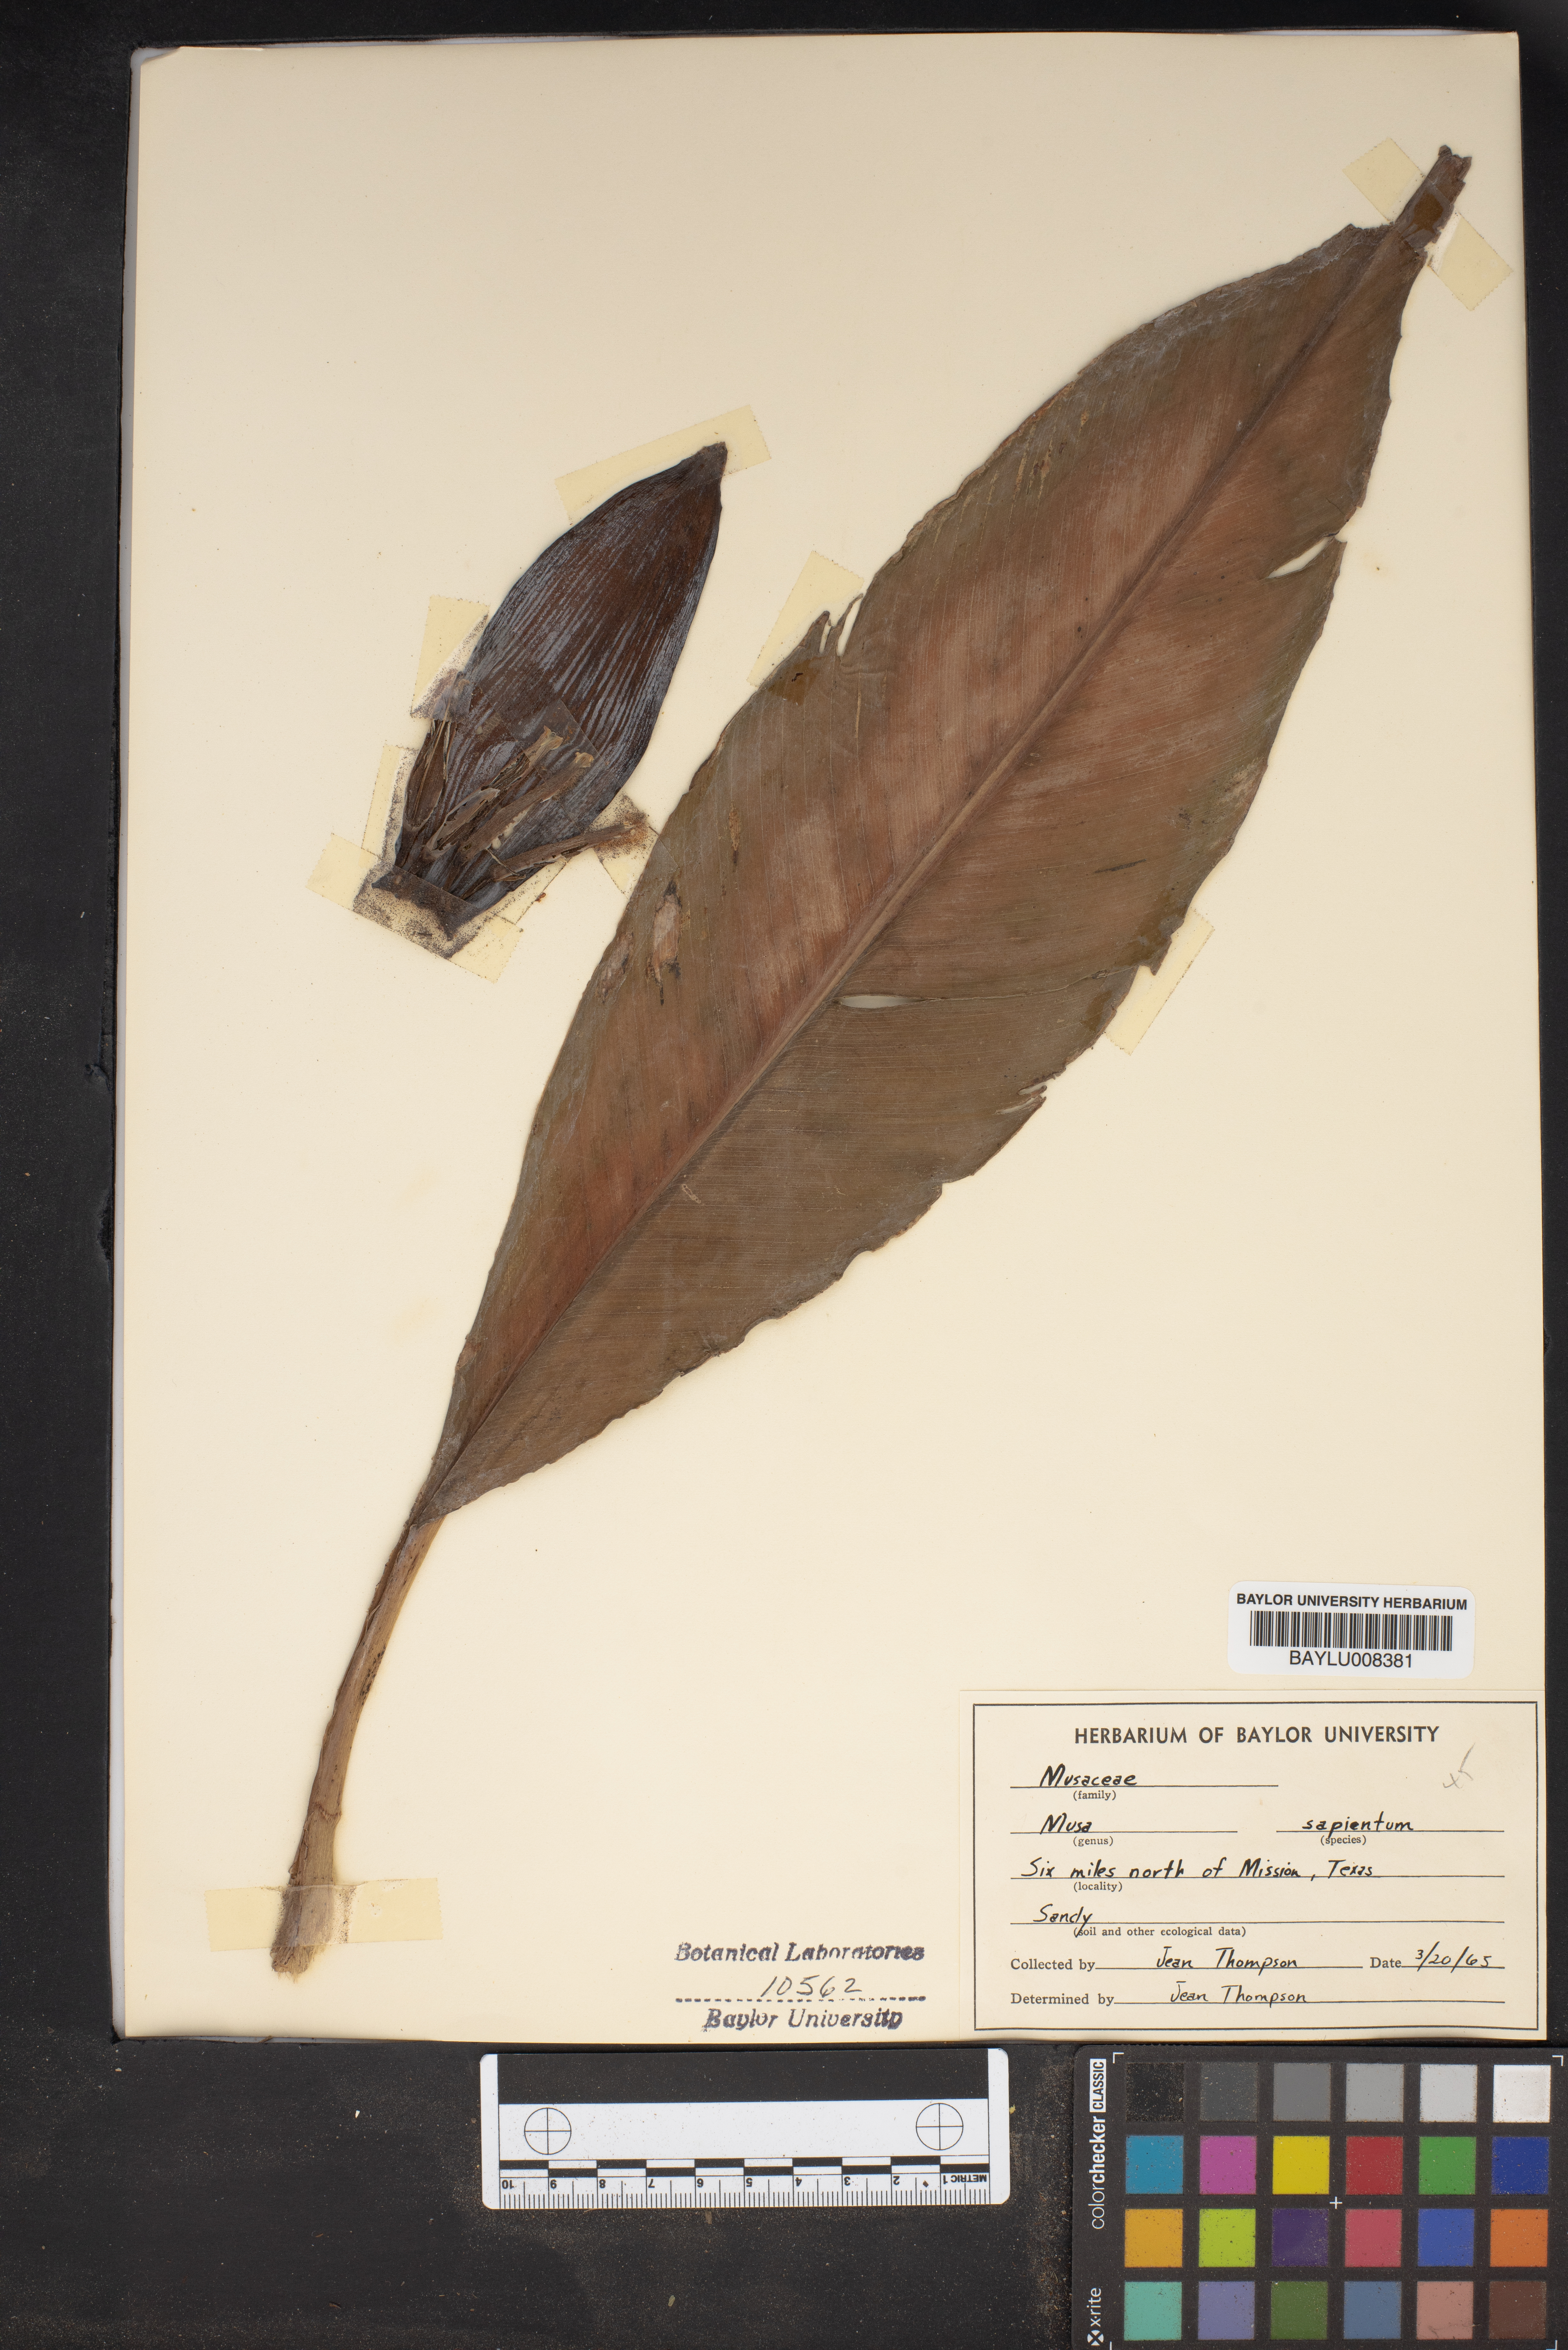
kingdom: Plantae
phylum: Tracheophyta
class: Liliopsida
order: Zingiberales
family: Musaceae
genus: Musa
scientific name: Musa paradisiaca
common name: French plantain
